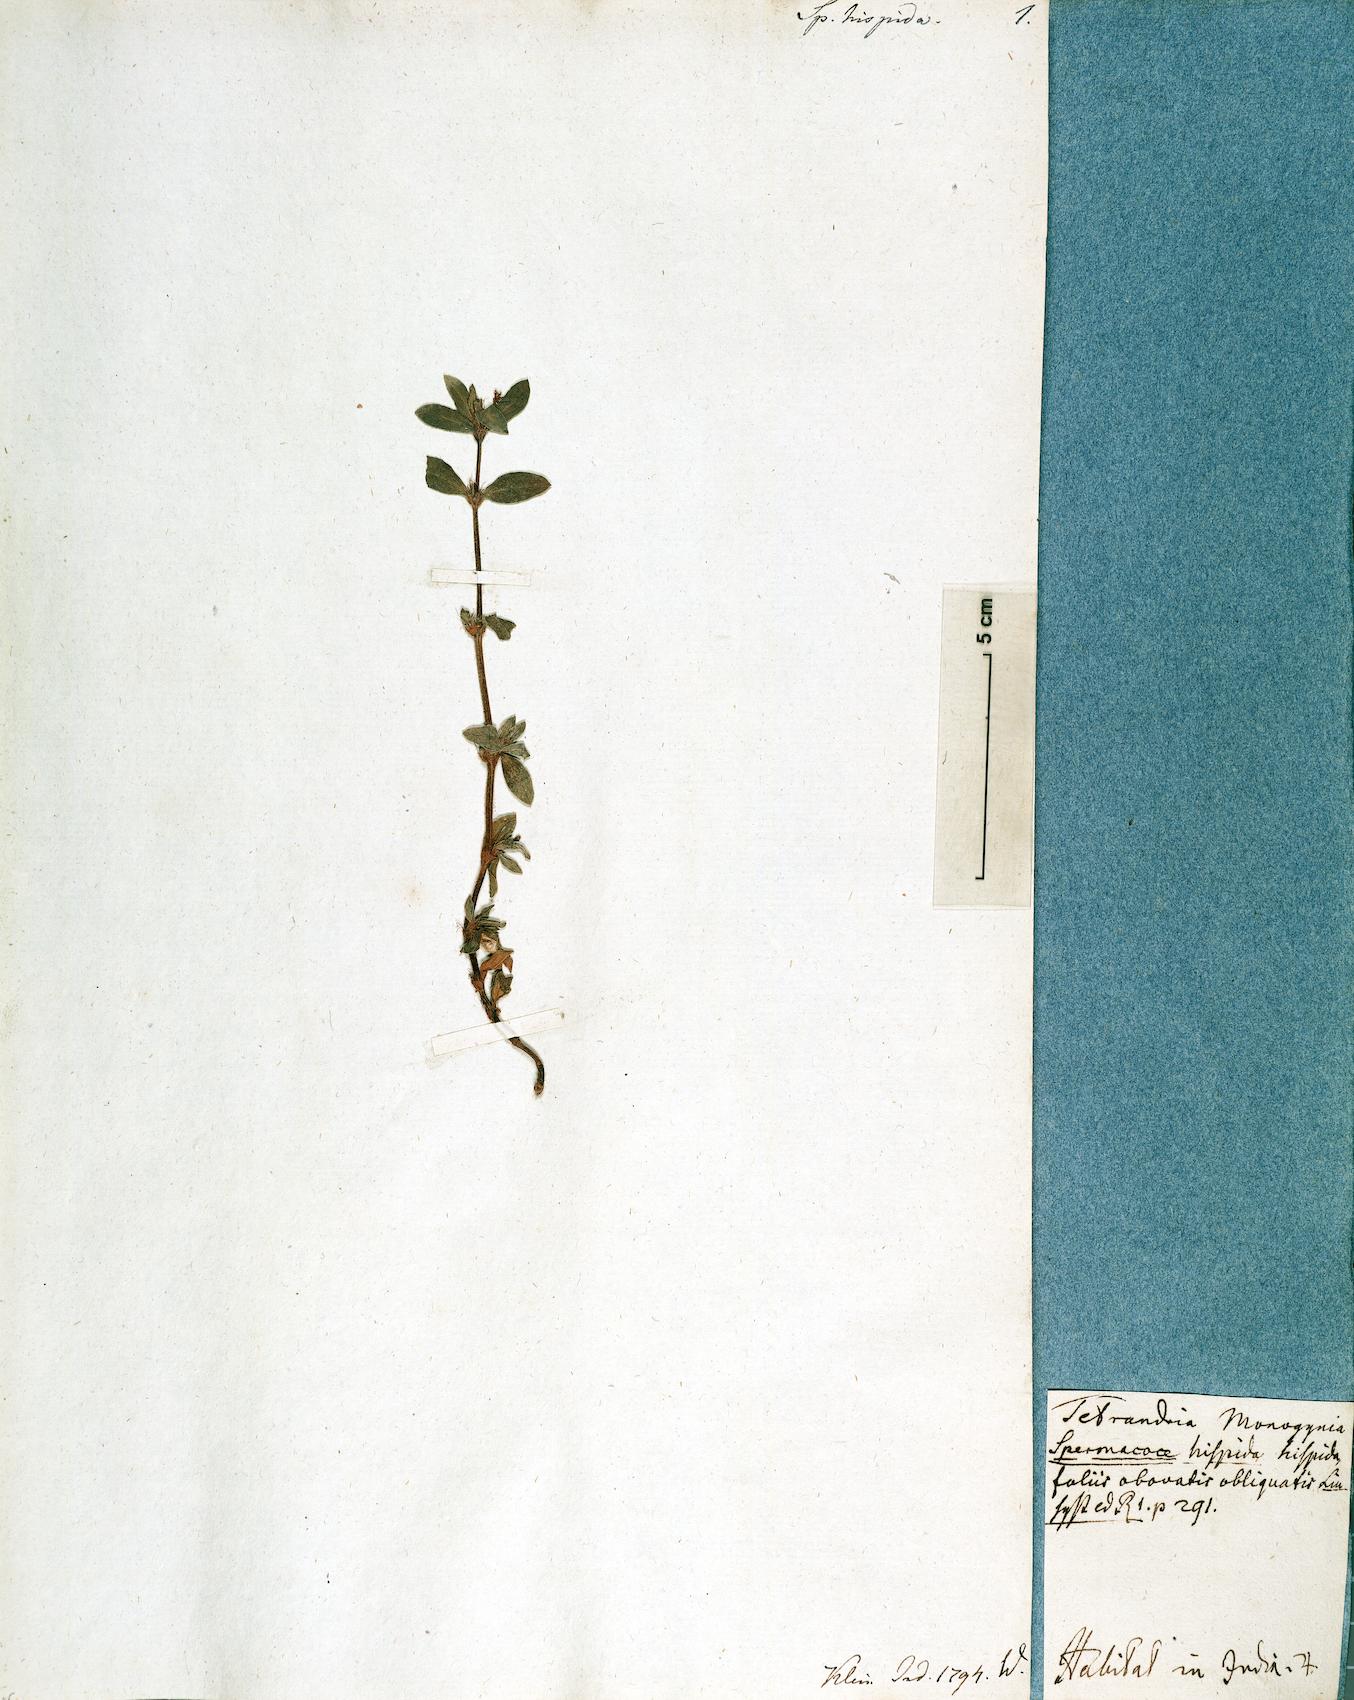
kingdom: Plantae
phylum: Tracheophyta
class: Magnoliopsida
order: Gentianales
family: Rubiaceae
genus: Spermacoce
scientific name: Spermacoce hispida
